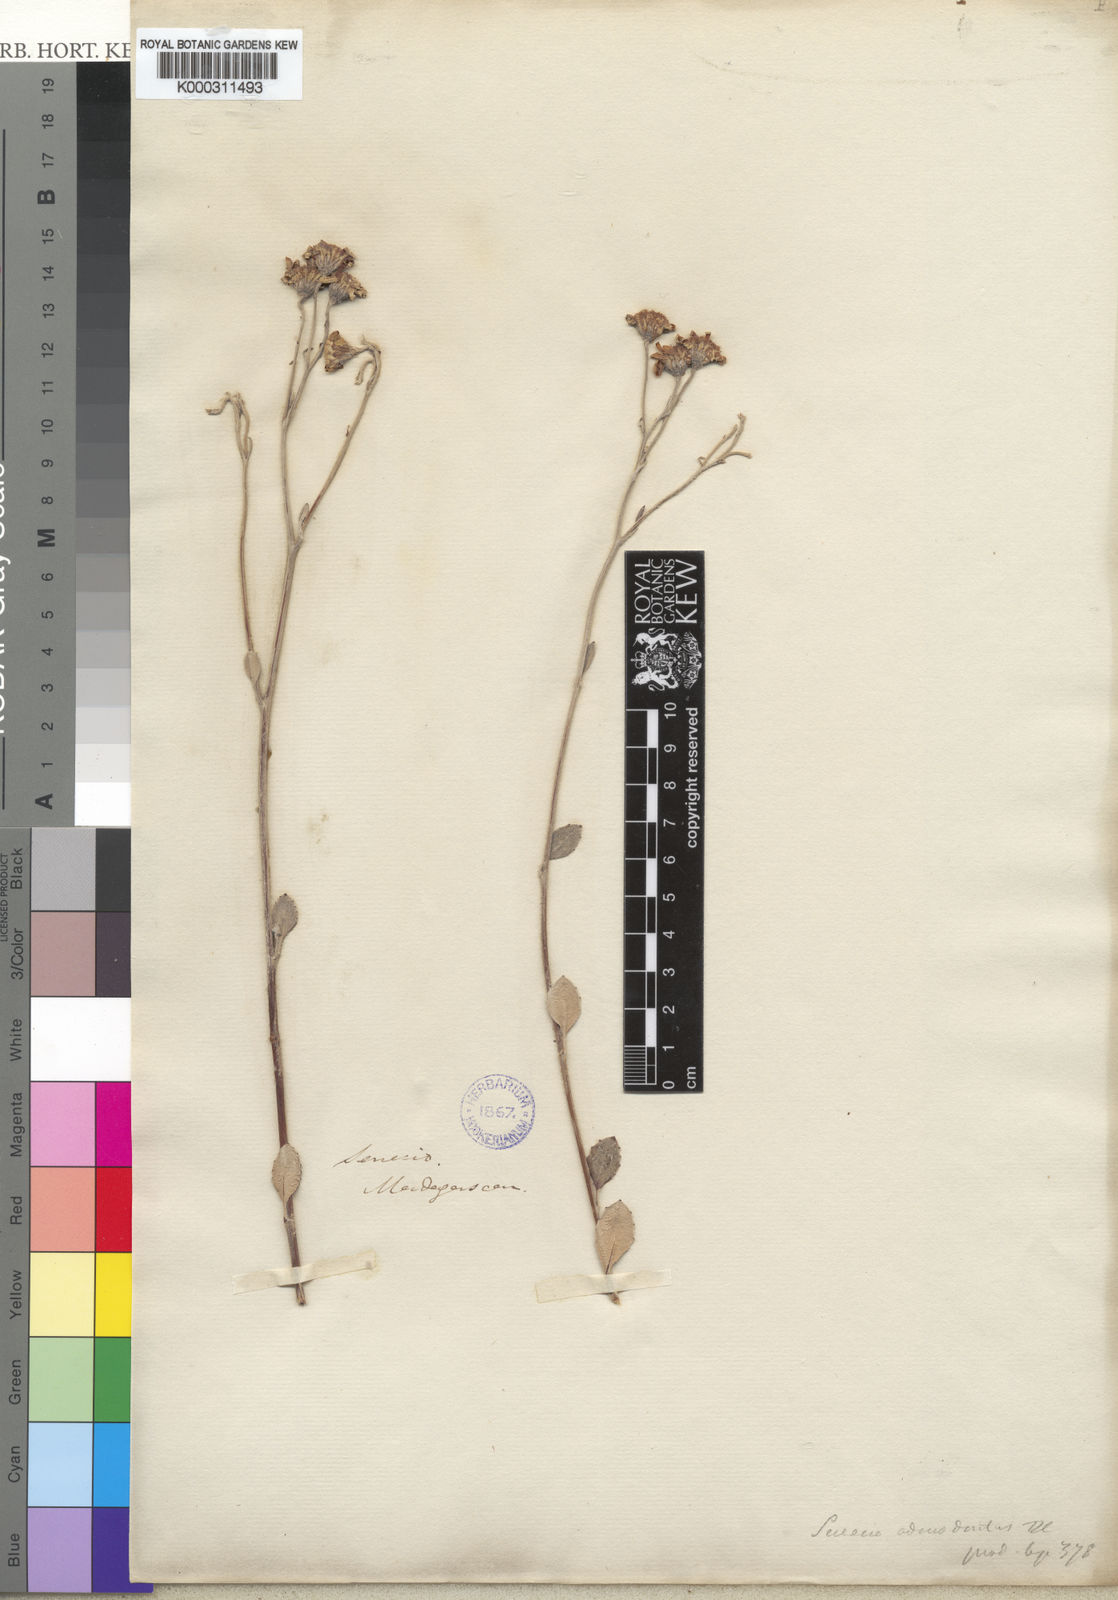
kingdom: Plantae
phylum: Tracheophyta
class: Magnoliopsida
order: Asterales
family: Asteraceae
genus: Senecio
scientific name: Senecio
